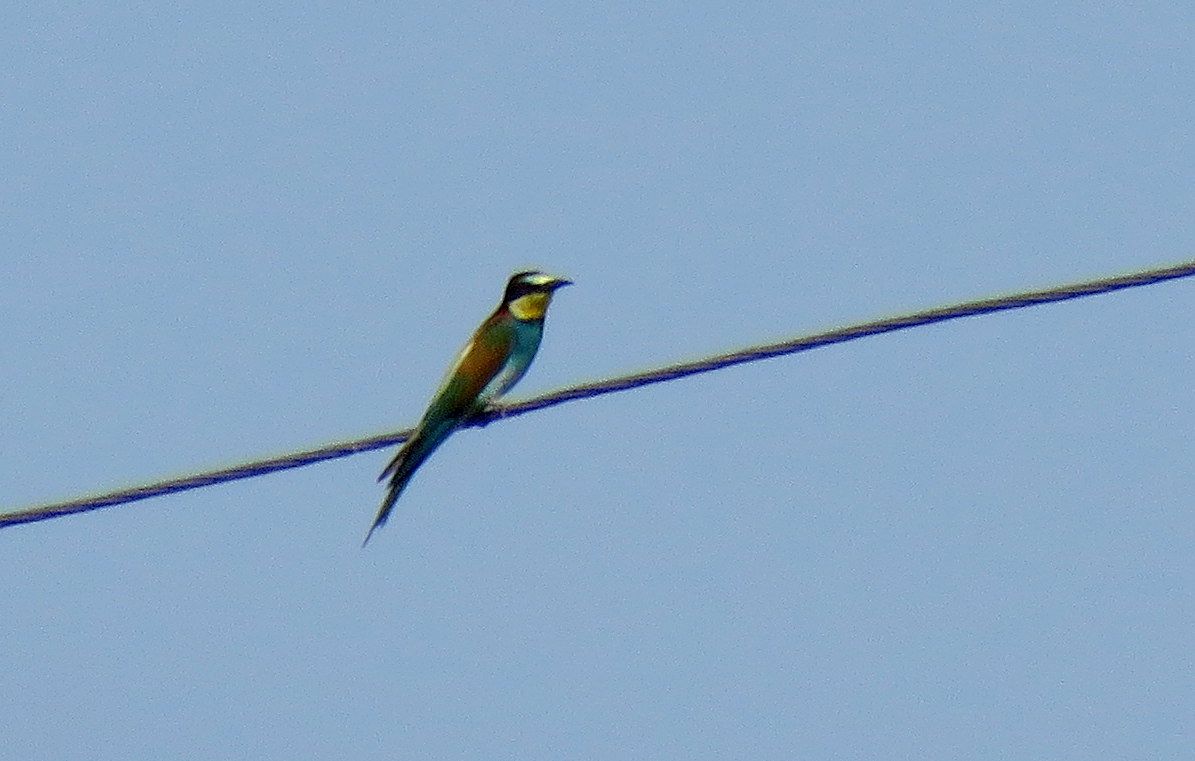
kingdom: Animalia
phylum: Chordata
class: Aves
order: Coraciiformes
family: Meropidae
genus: Merops
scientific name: Merops apiaster
